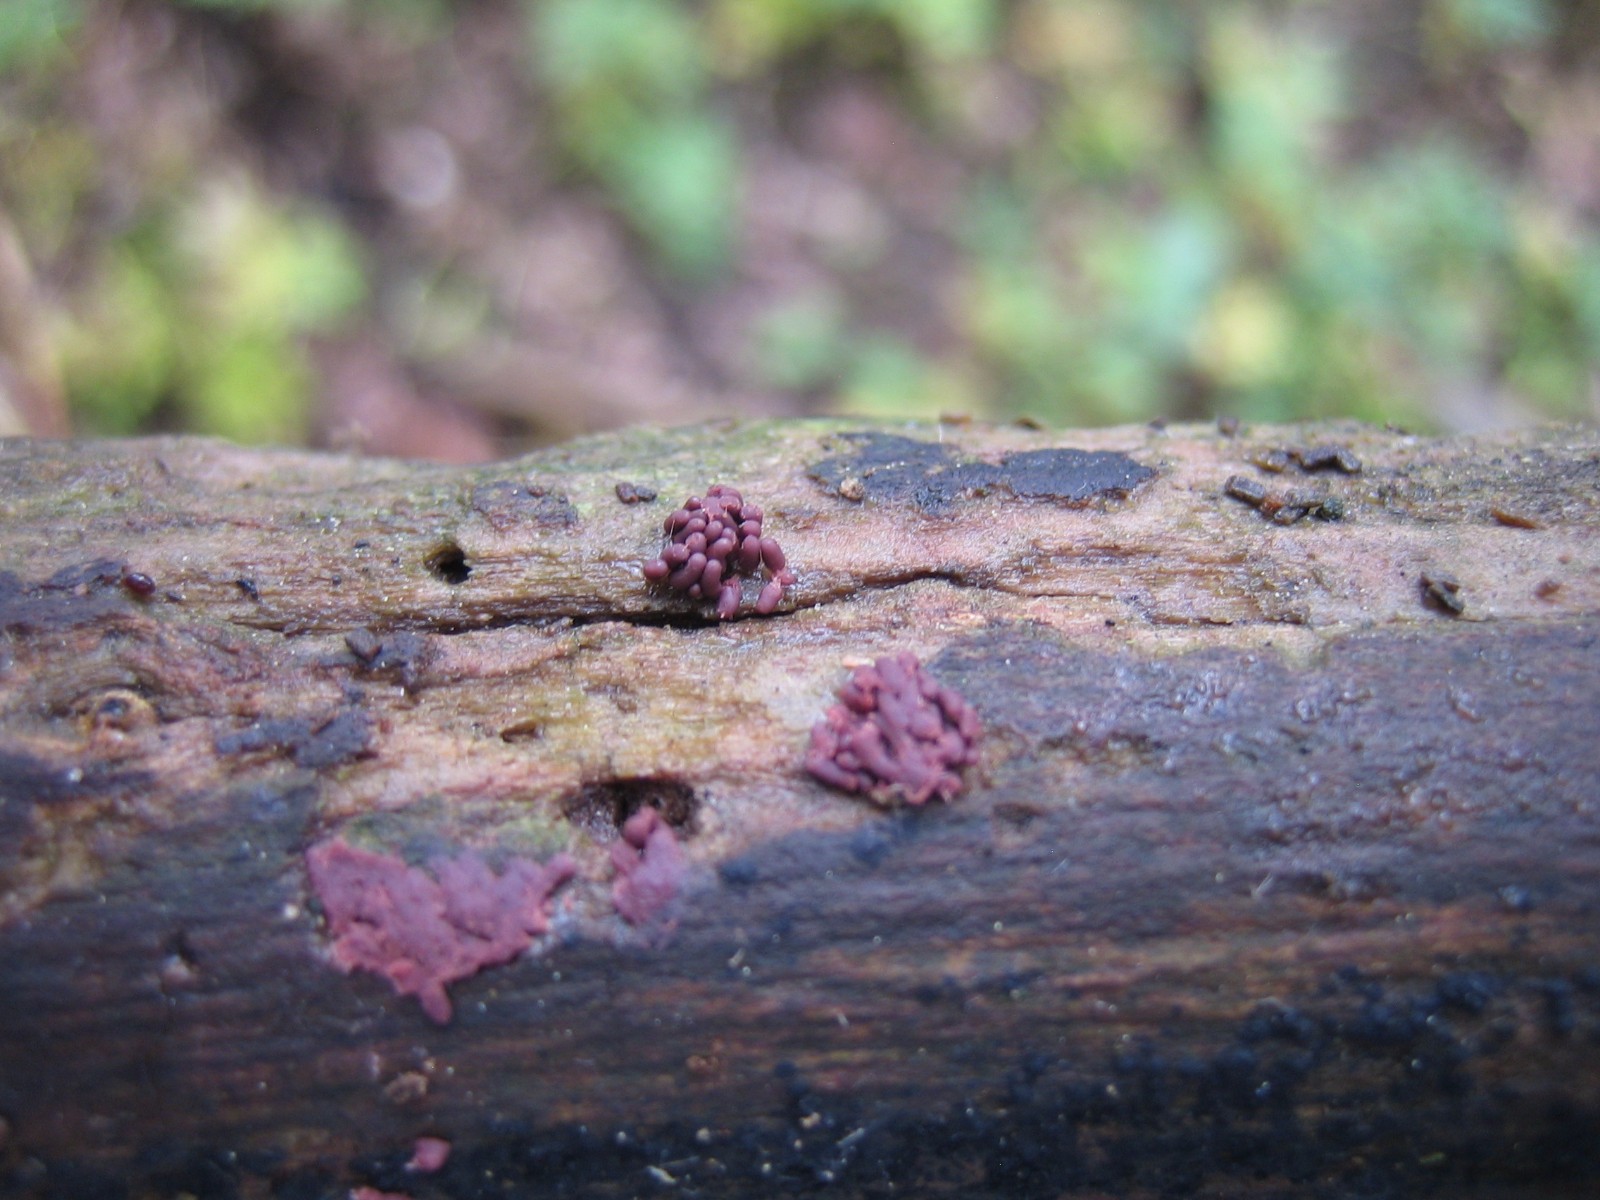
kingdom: Protozoa
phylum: Amoebozoa
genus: Arcyria
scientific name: Arcyria
